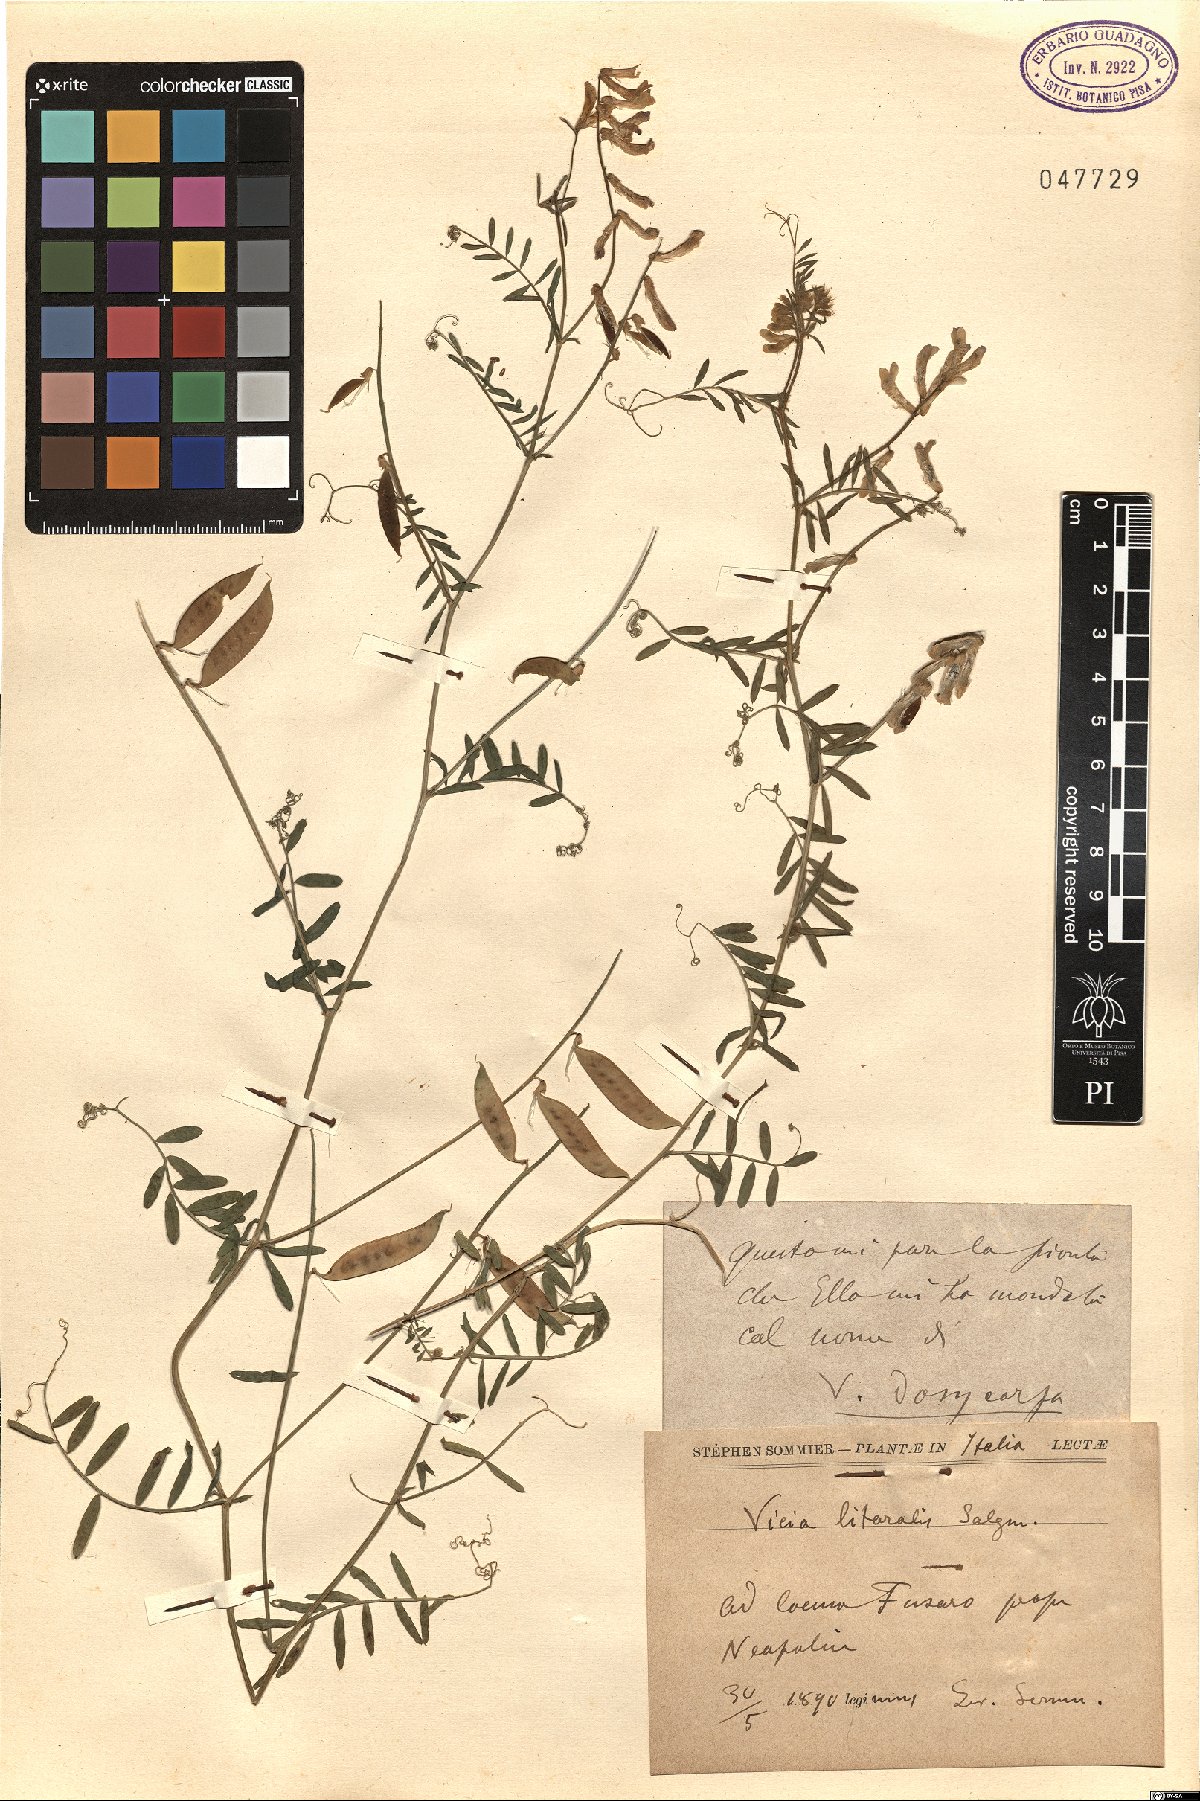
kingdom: Plantae
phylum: Tracheophyta
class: Magnoliopsida
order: Fabales
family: Fabaceae
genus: Vicia
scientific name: Vicia villosa
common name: Fodder vetch
